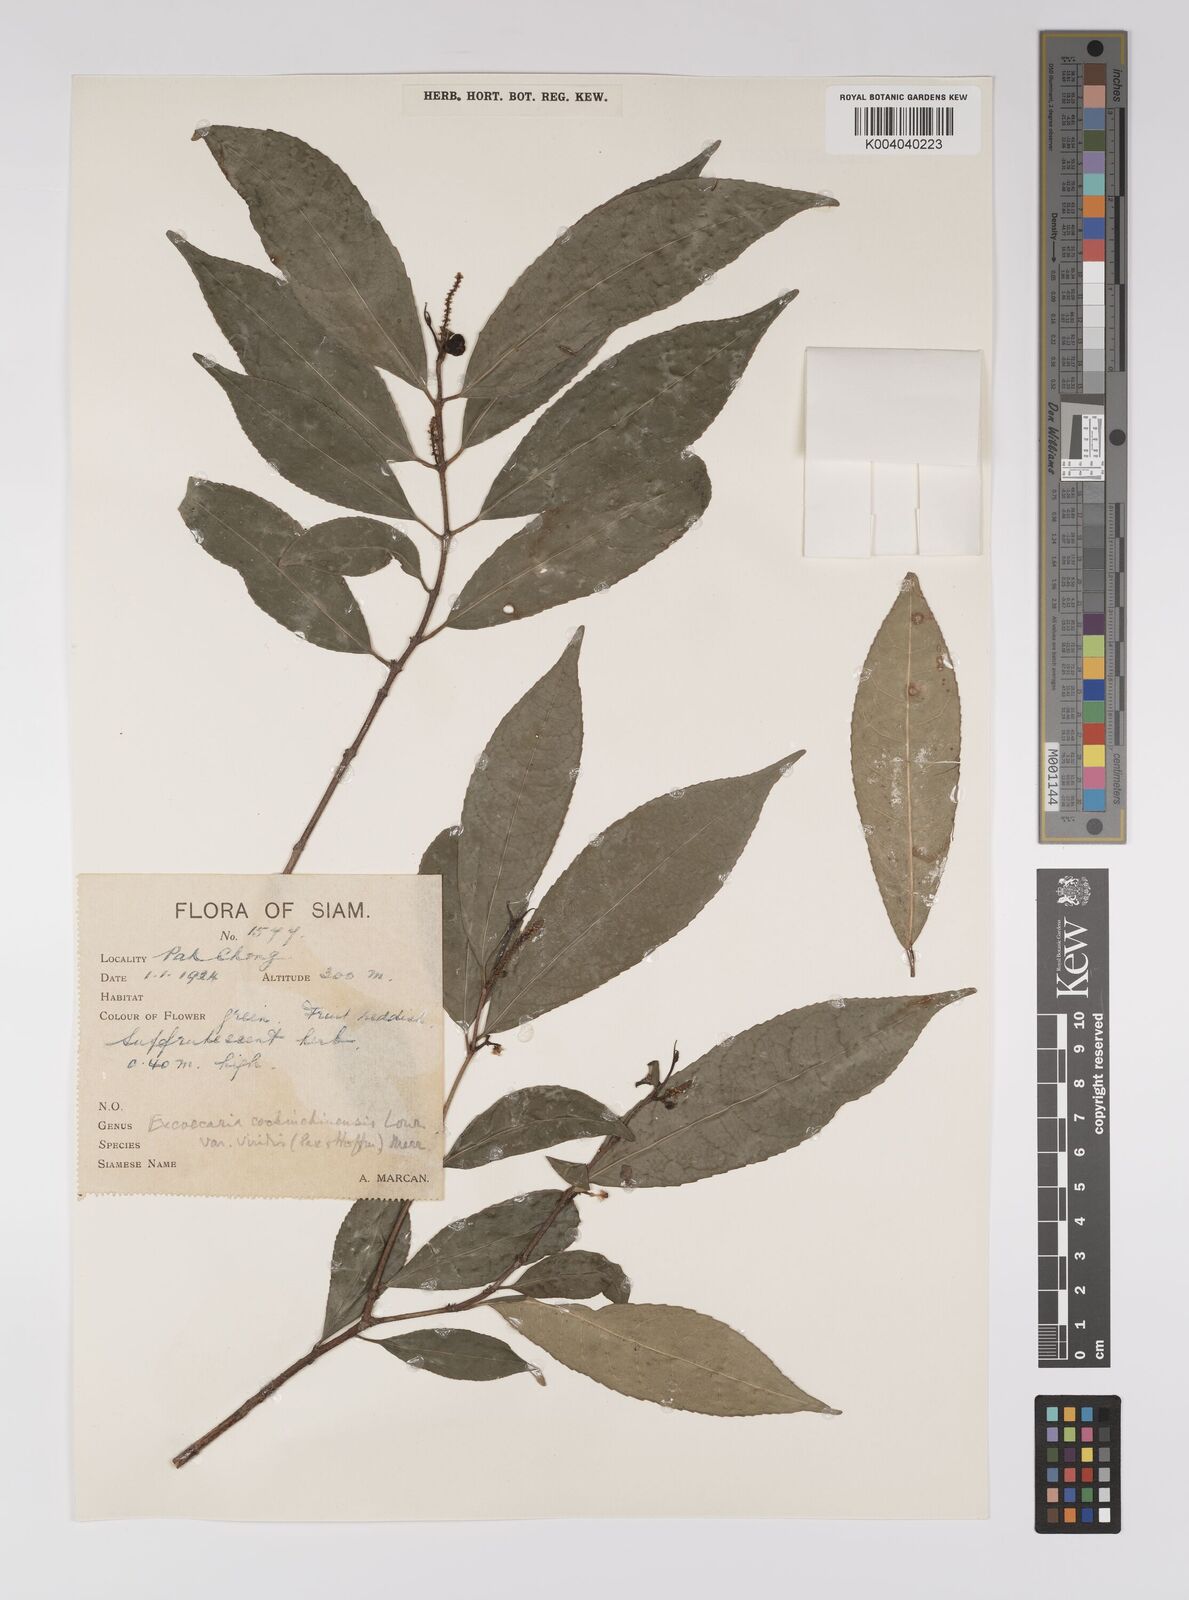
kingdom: Plantae
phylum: Tracheophyta
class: Magnoliopsida
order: Malpighiales
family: Euphorbiaceae
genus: Excoecaria
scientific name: Excoecaria cochinchinensis
